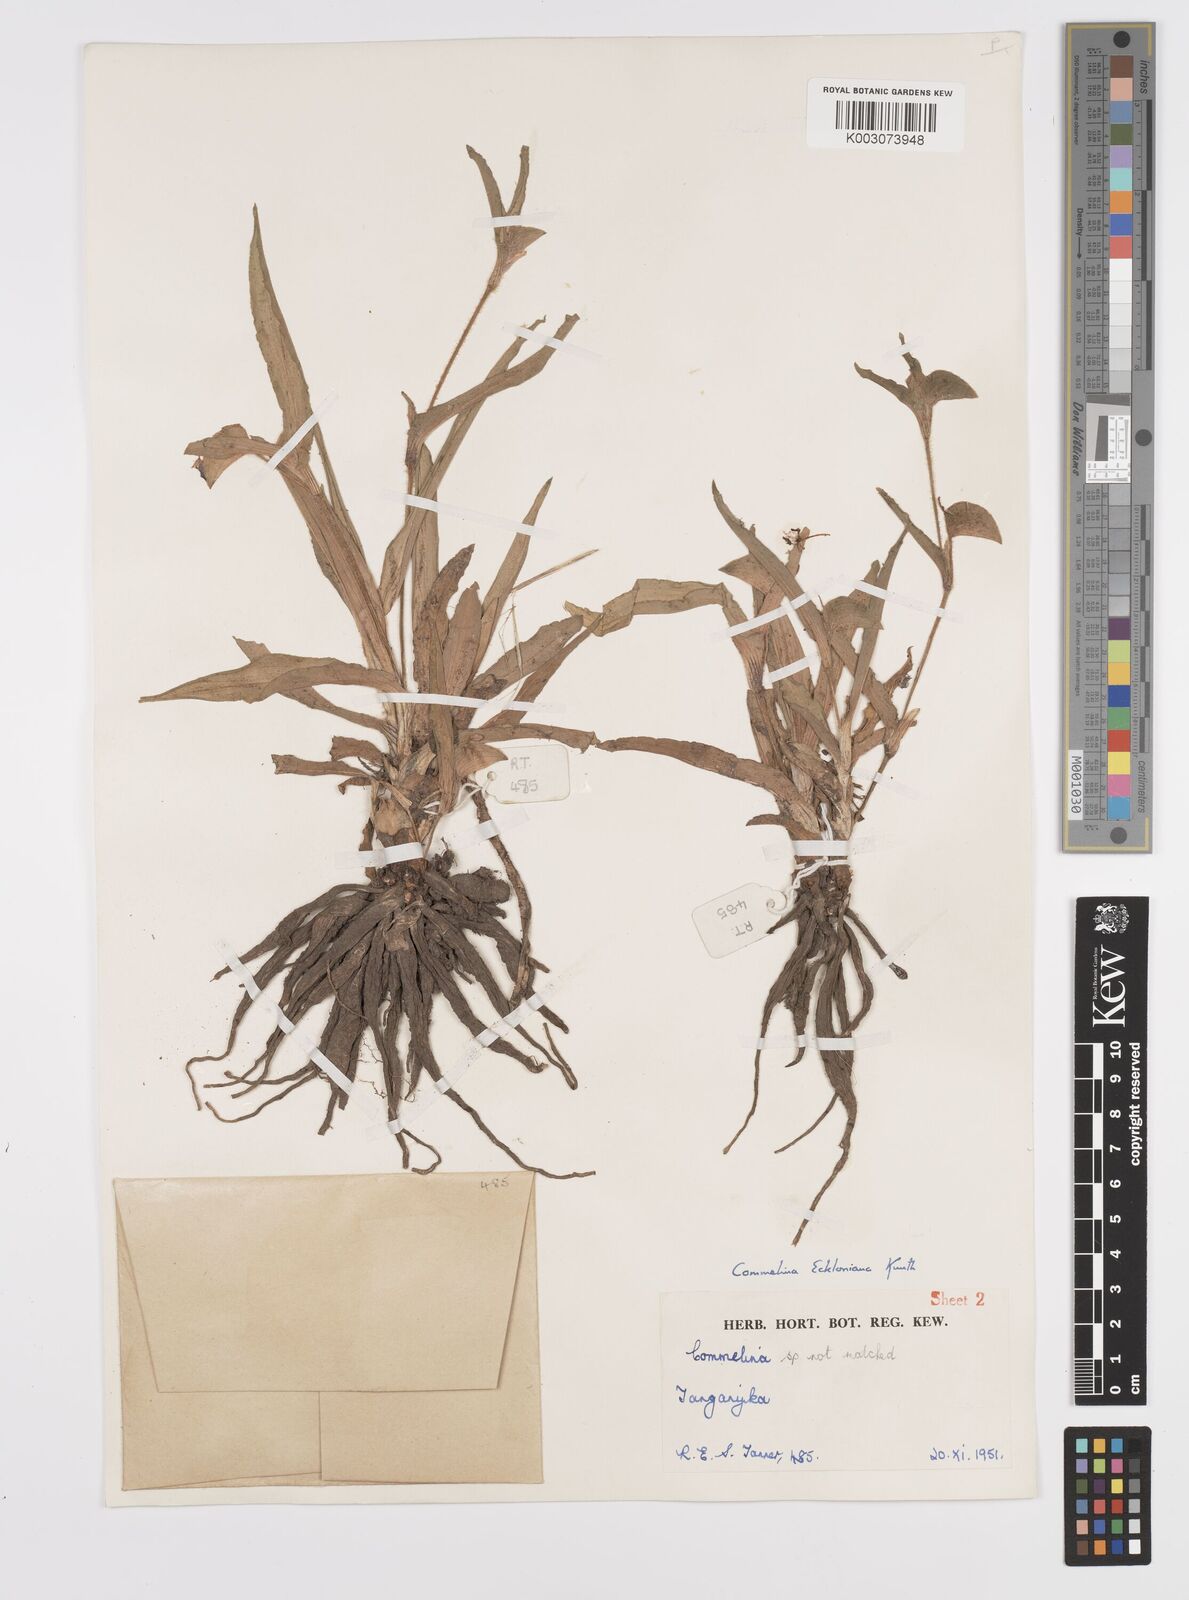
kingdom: Plantae
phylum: Tracheophyta
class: Liliopsida
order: Commelinales
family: Commelinaceae
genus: Commelina
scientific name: Commelina eckloniana
